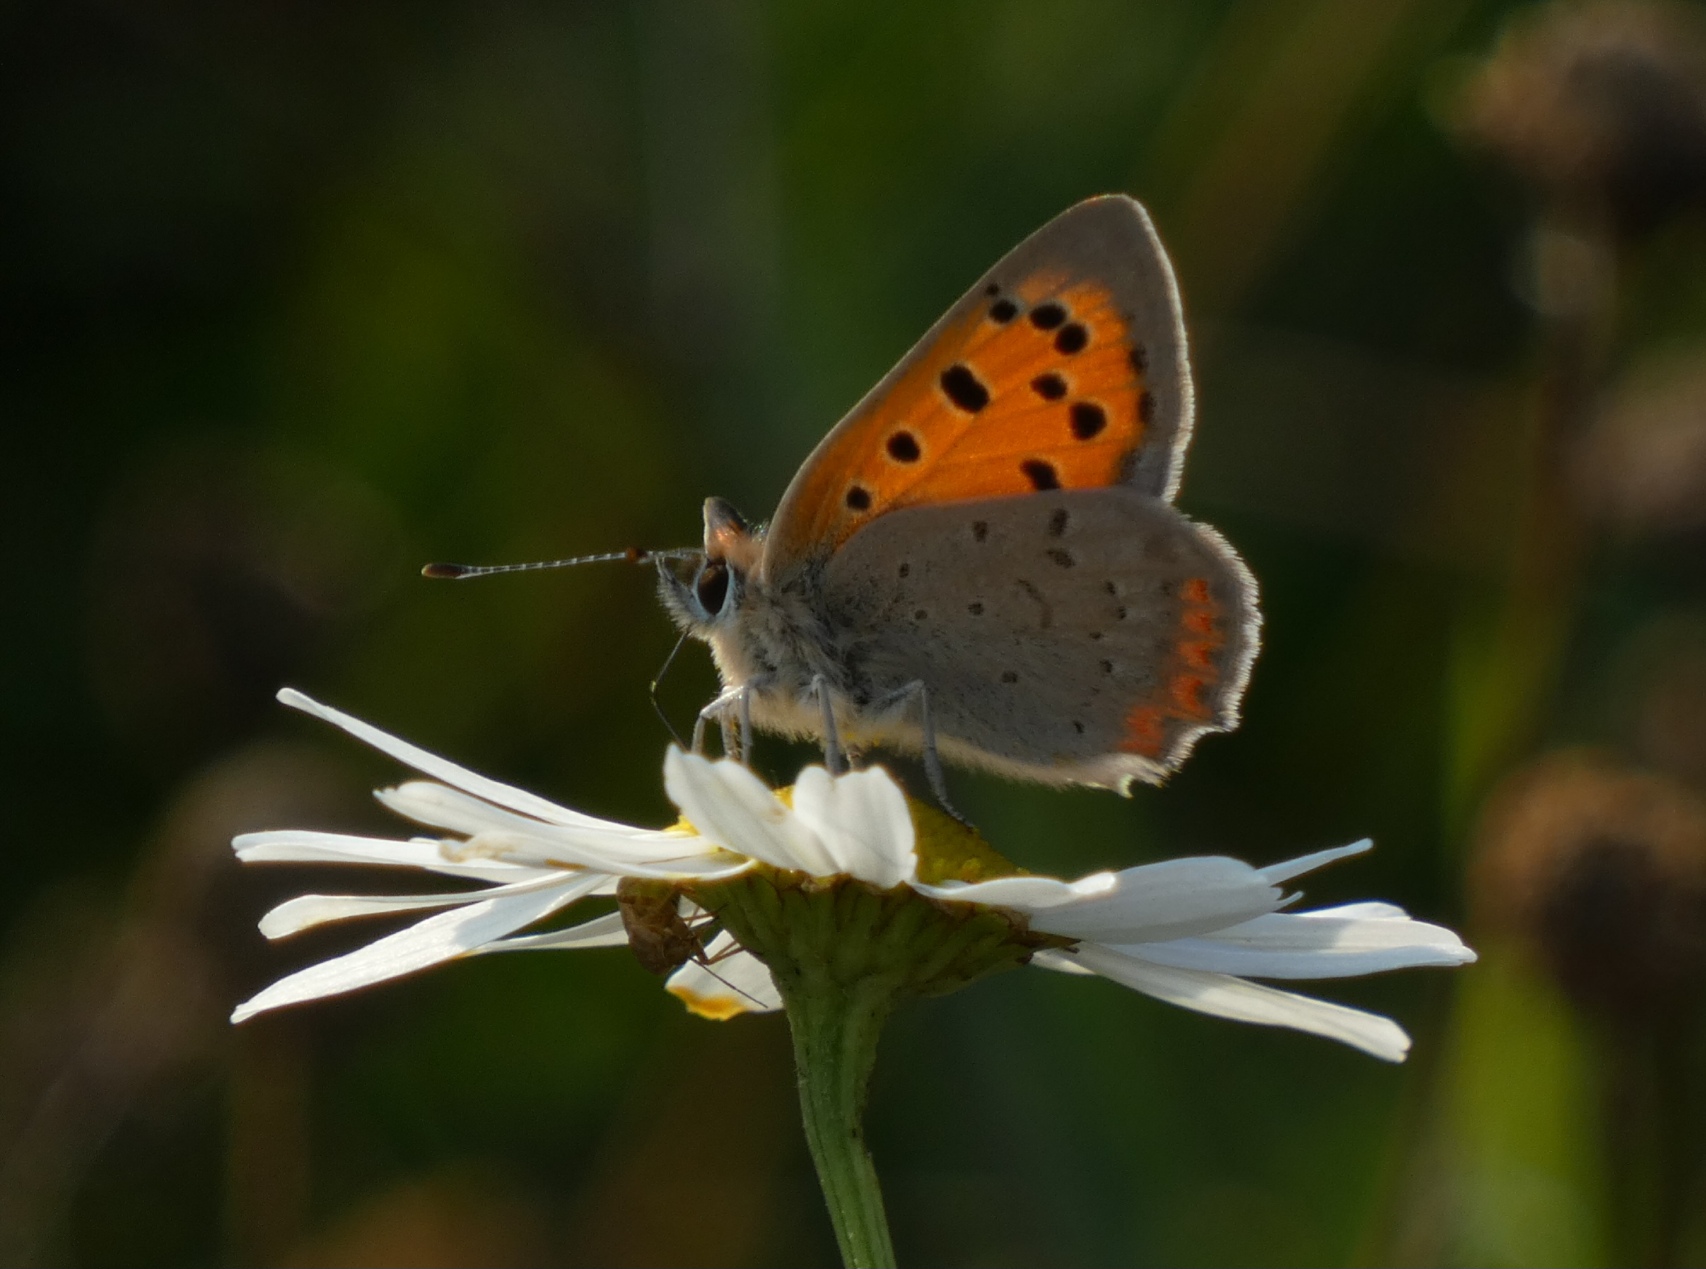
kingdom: Animalia
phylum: Arthropoda
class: Insecta
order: Lepidoptera
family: Lycaenidae
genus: Lycaena
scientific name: Lycaena phlaeas
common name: Lille ildfugl
